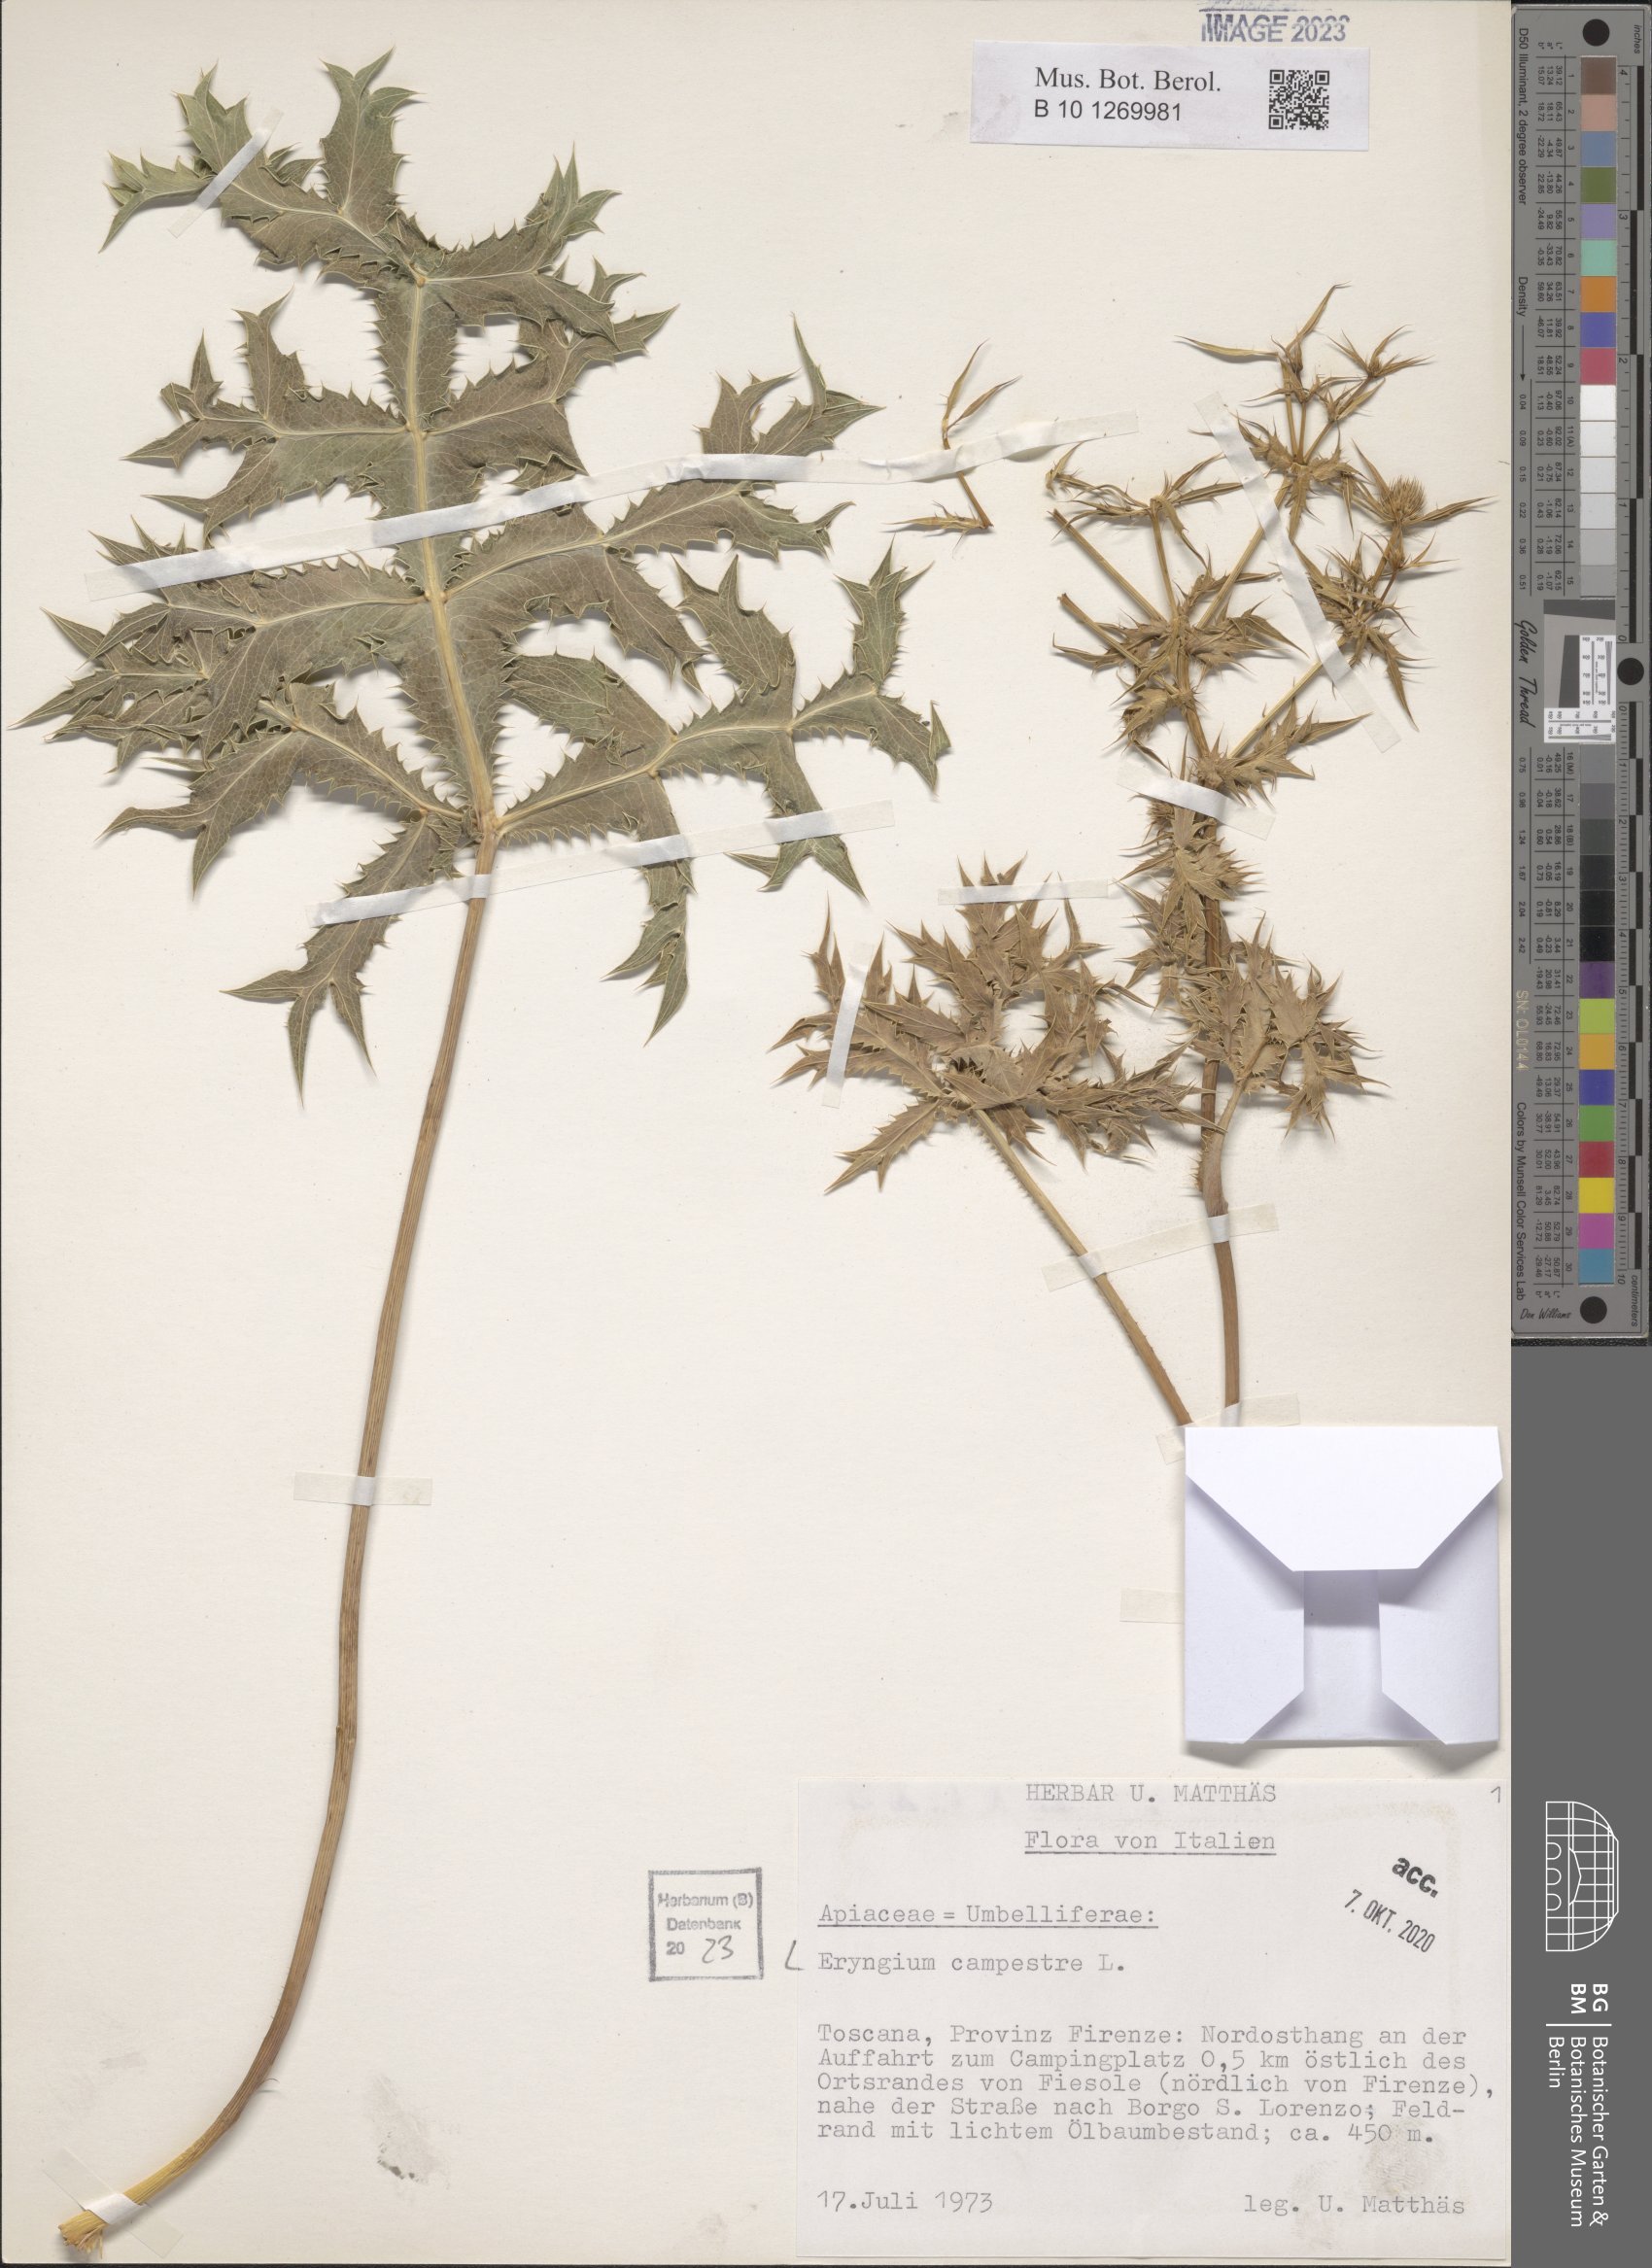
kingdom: Plantae
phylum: Tracheophyta
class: Magnoliopsida
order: Apiales
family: Apiaceae
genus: Eryngium
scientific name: Eryngium campestre
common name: Field eryngo
